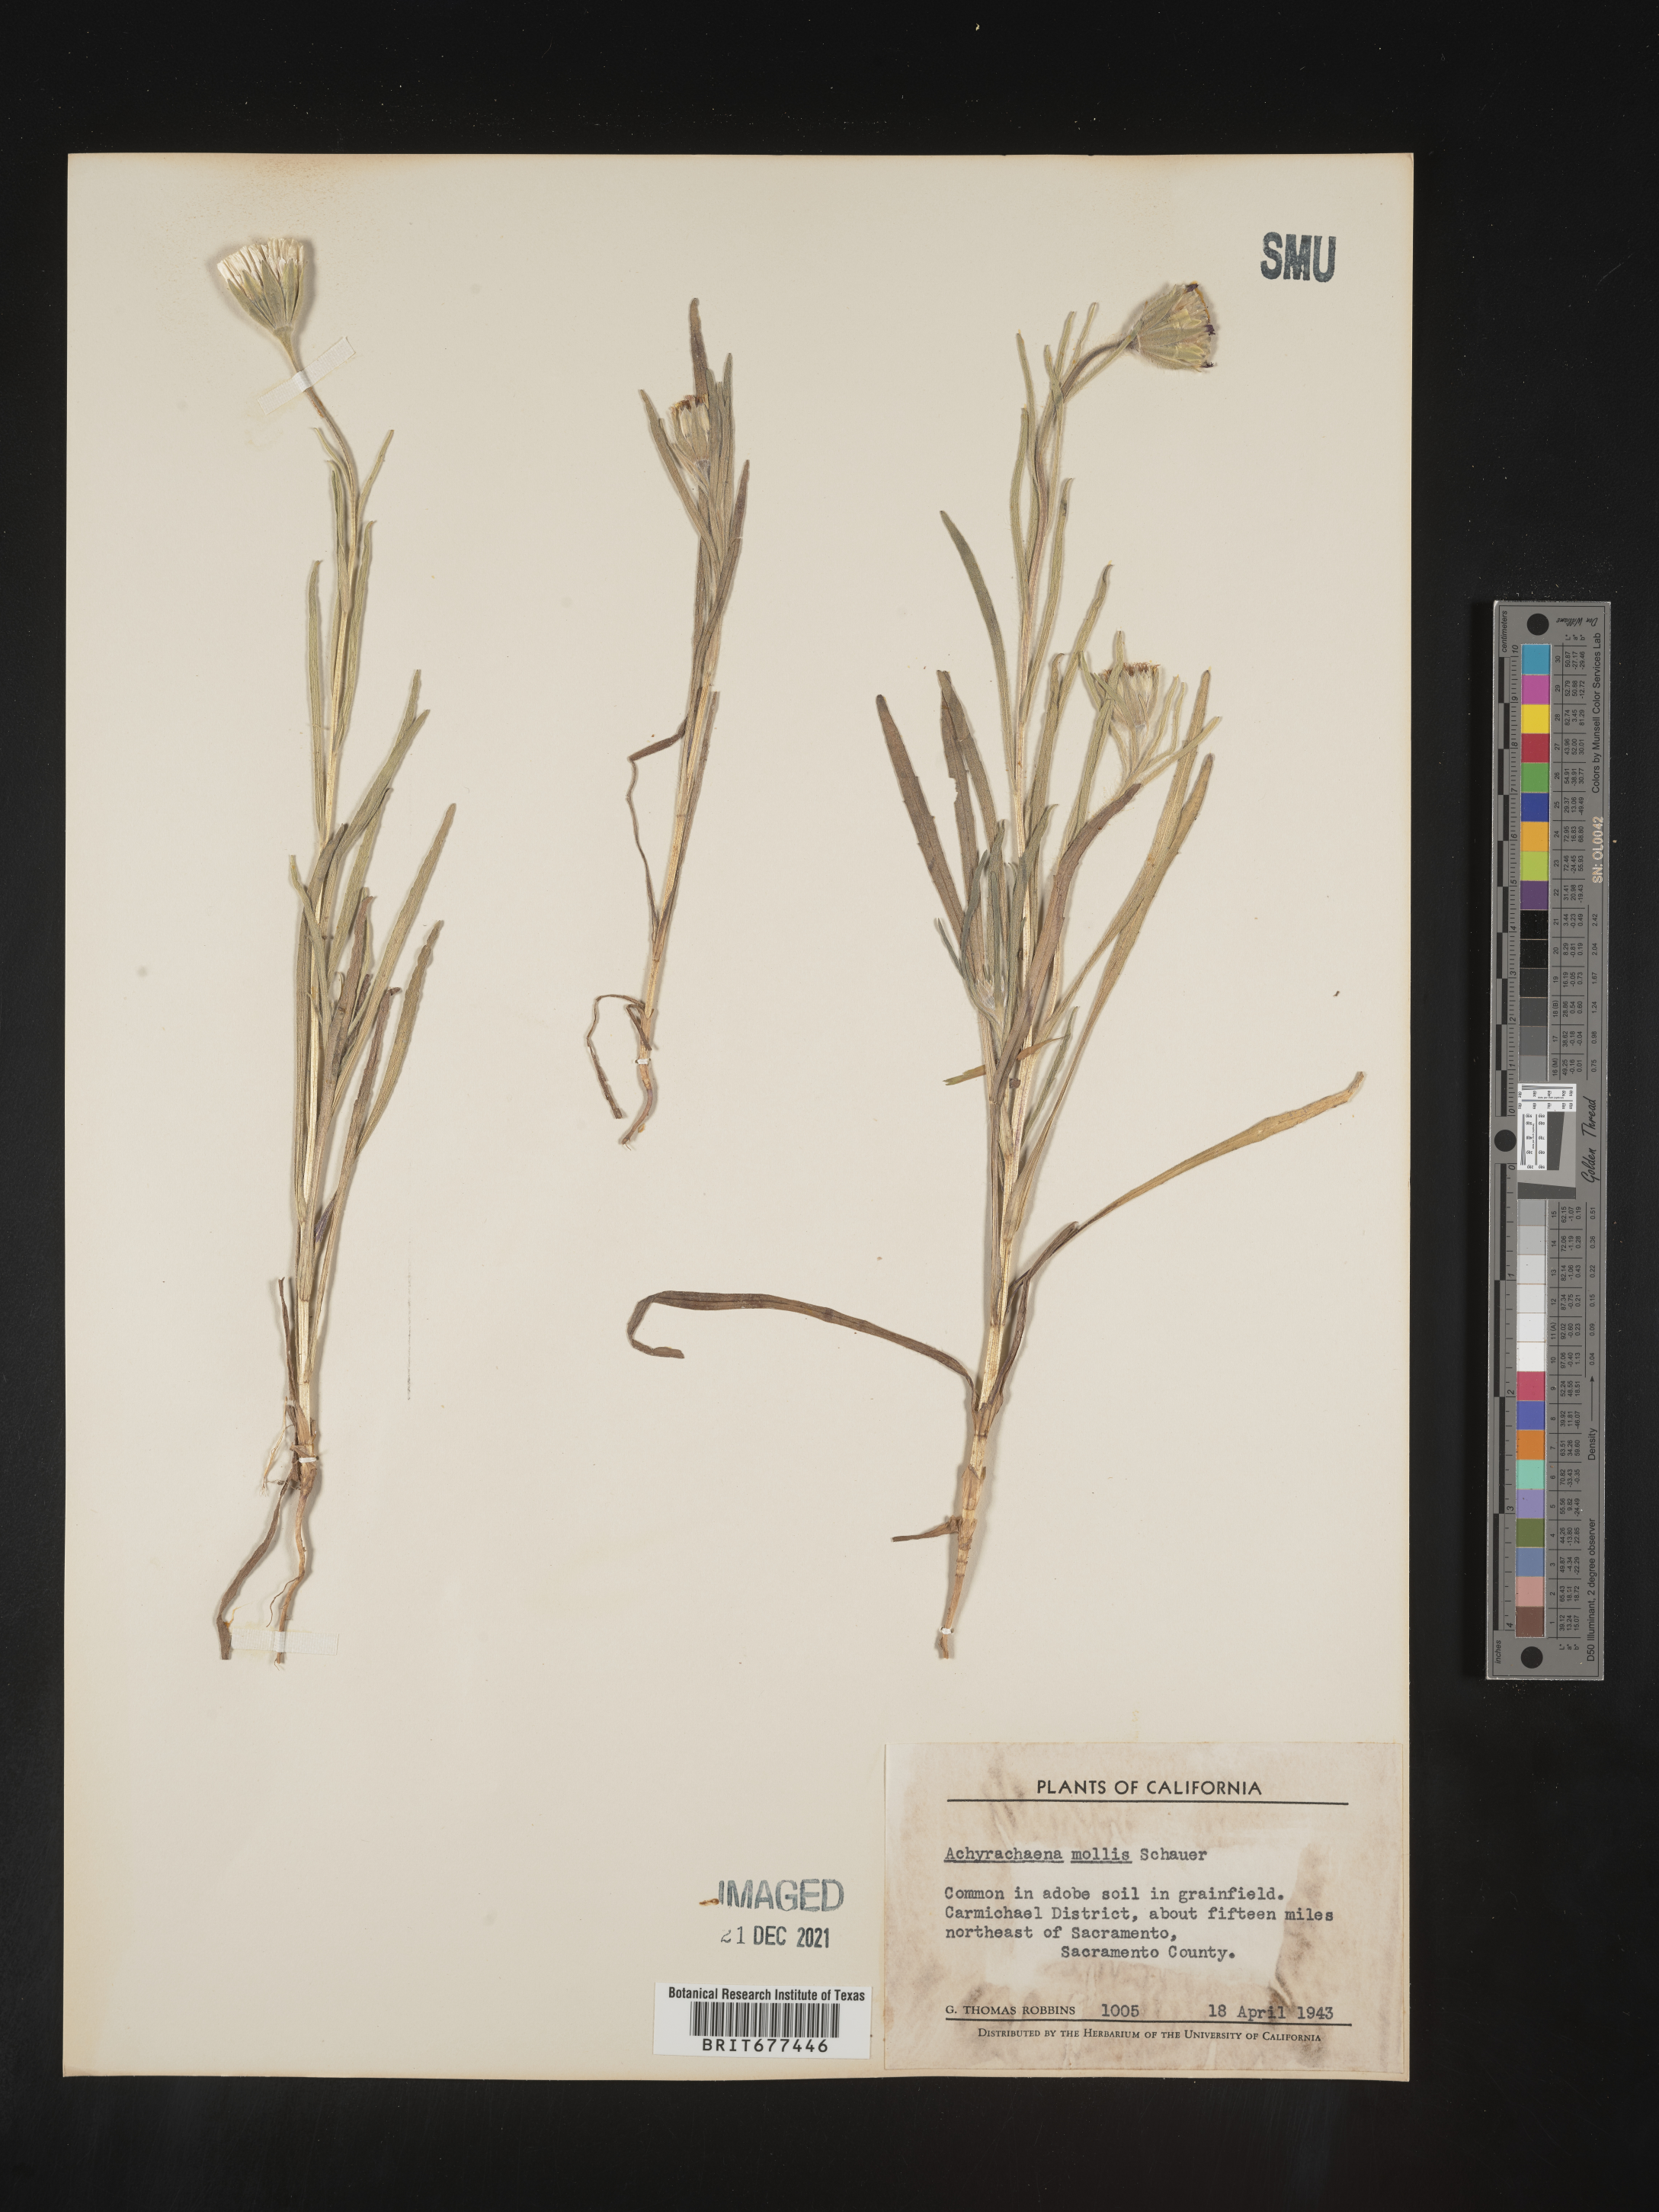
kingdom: Plantae
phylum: Tracheophyta
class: Magnoliopsida
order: Asterales
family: Asteraceae
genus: Achyrachaena
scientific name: Achyrachaena mollis
